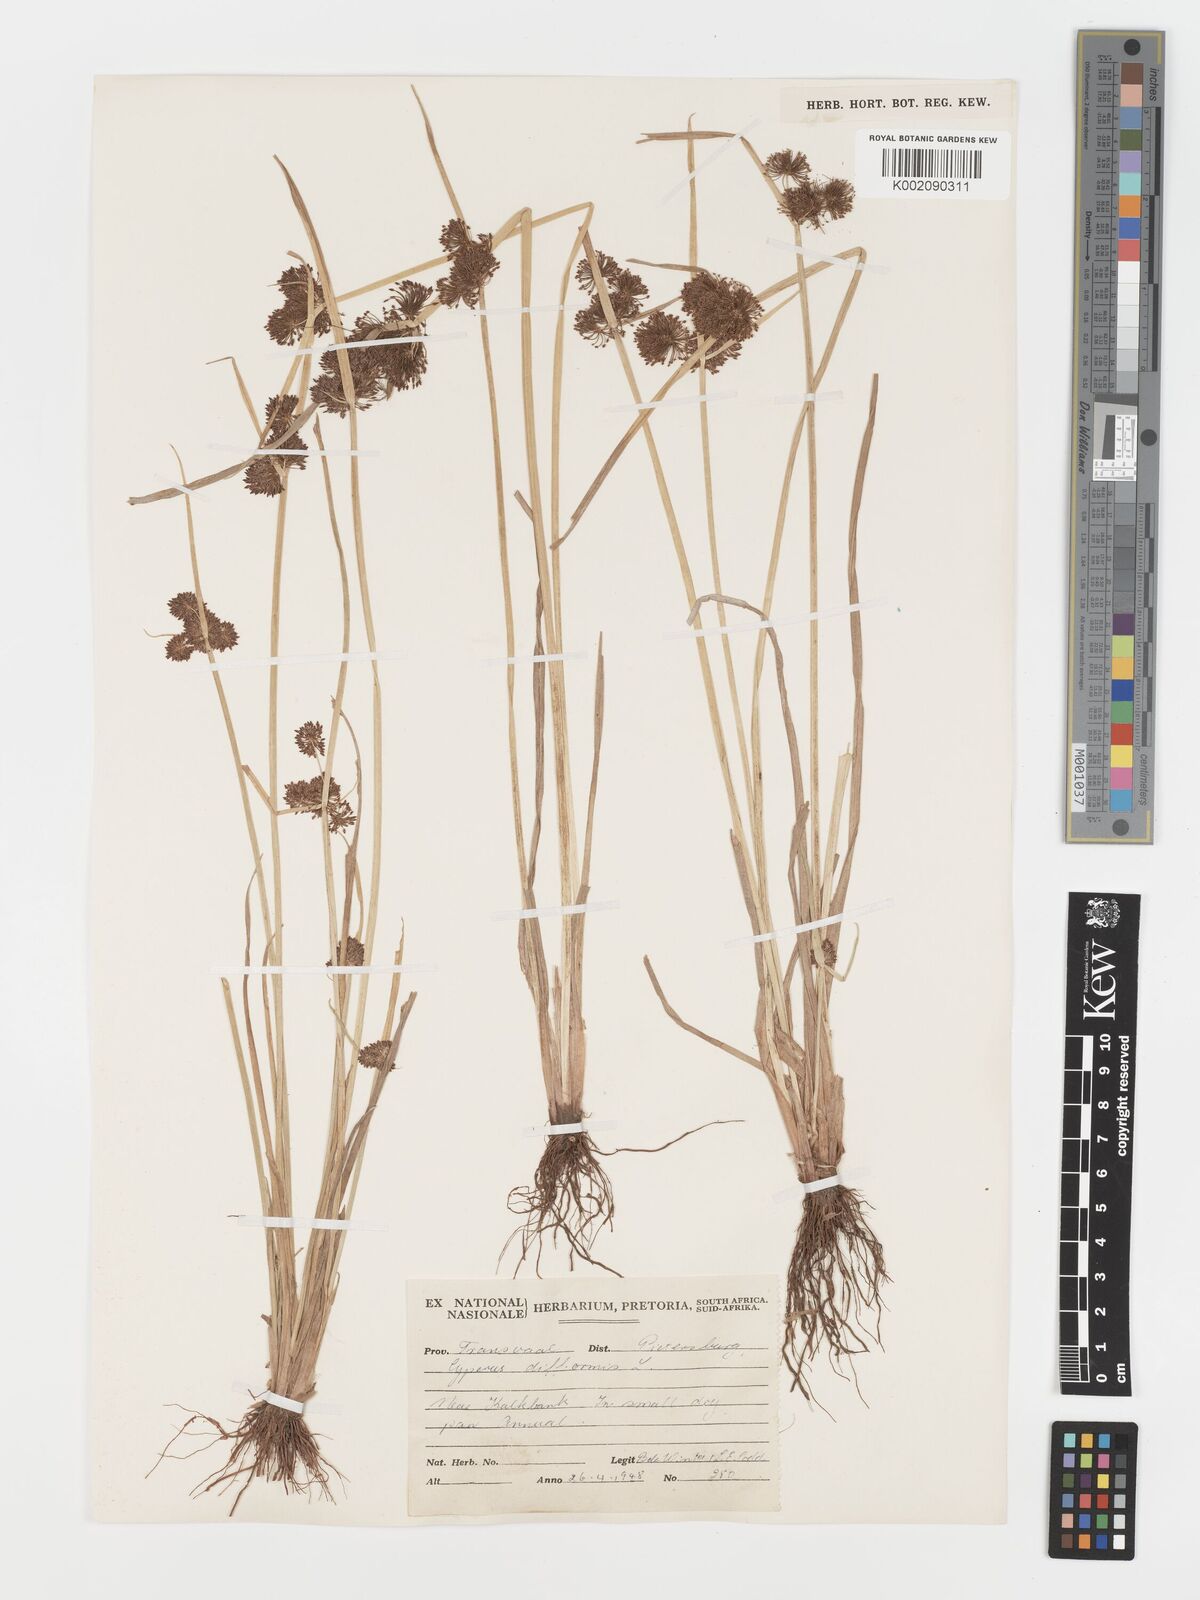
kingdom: Plantae
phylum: Tracheophyta
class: Liliopsida
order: Poales
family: Cyperaceae
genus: Cyperus
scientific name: Cyperus difformis
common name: Variable flatsedge
